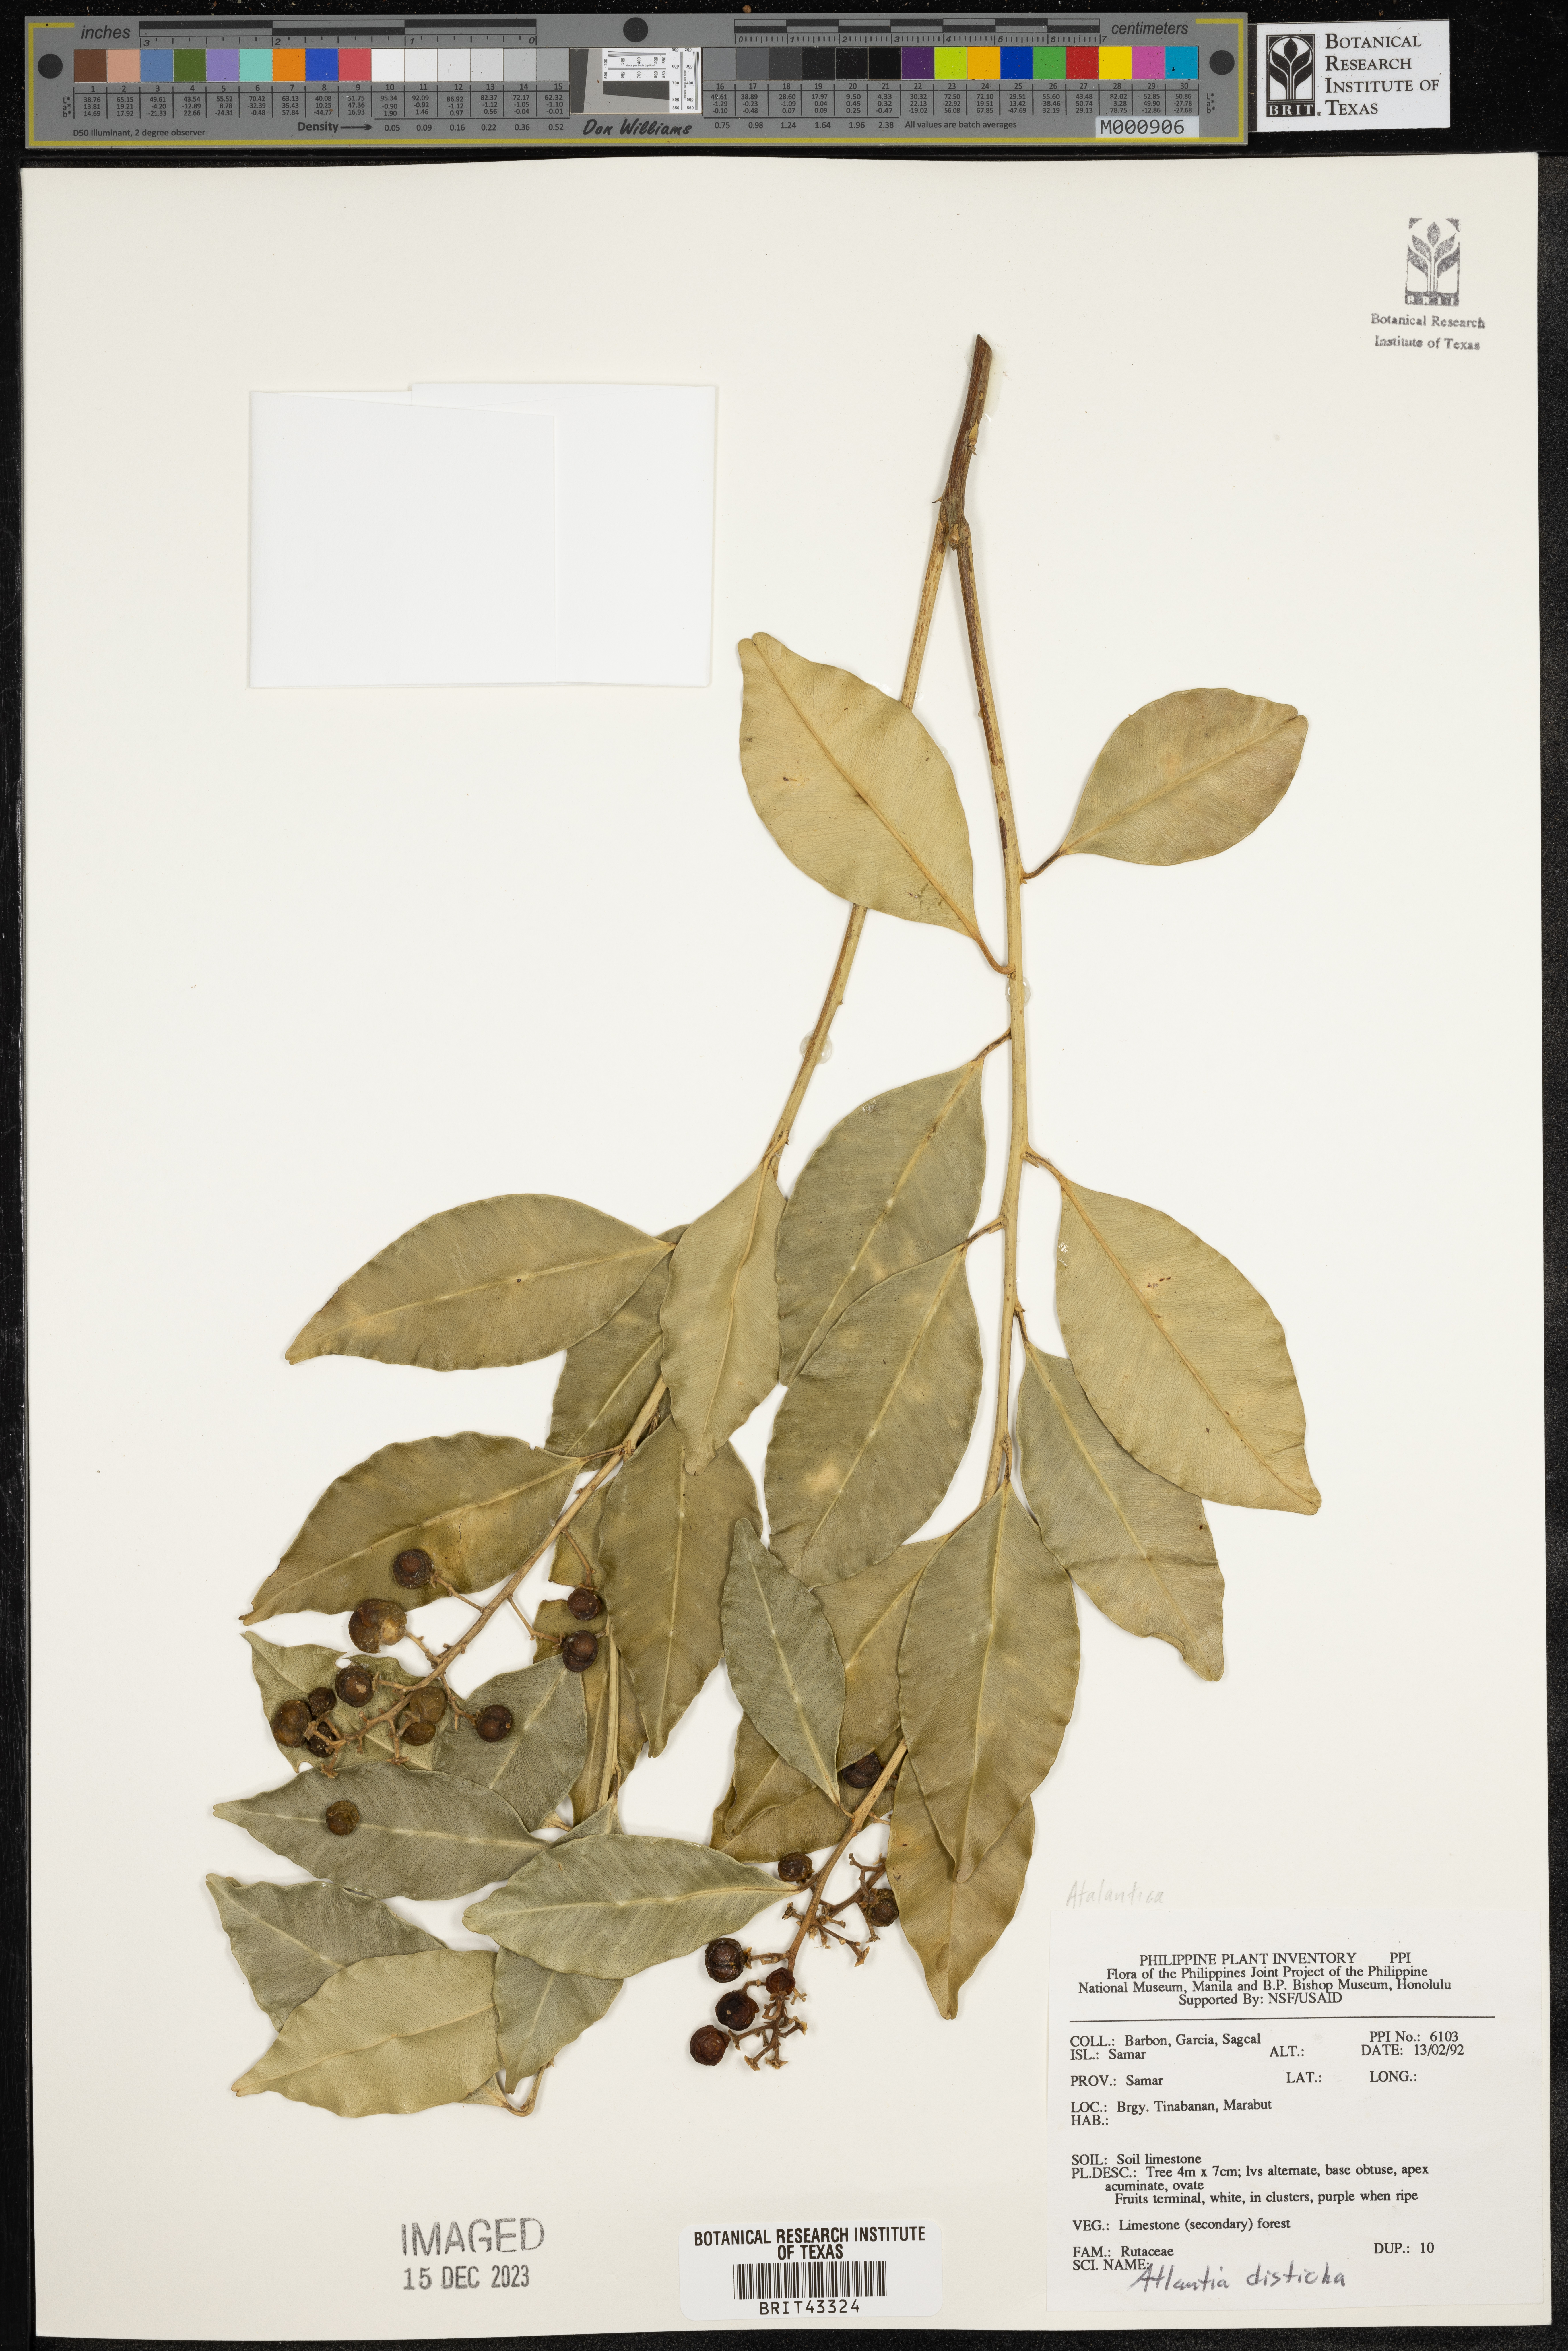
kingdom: Plantae
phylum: Tracheophyta
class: Magnoliopsida
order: Sapindales
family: Rutaceae
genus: Atalantia
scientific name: Atalantia
